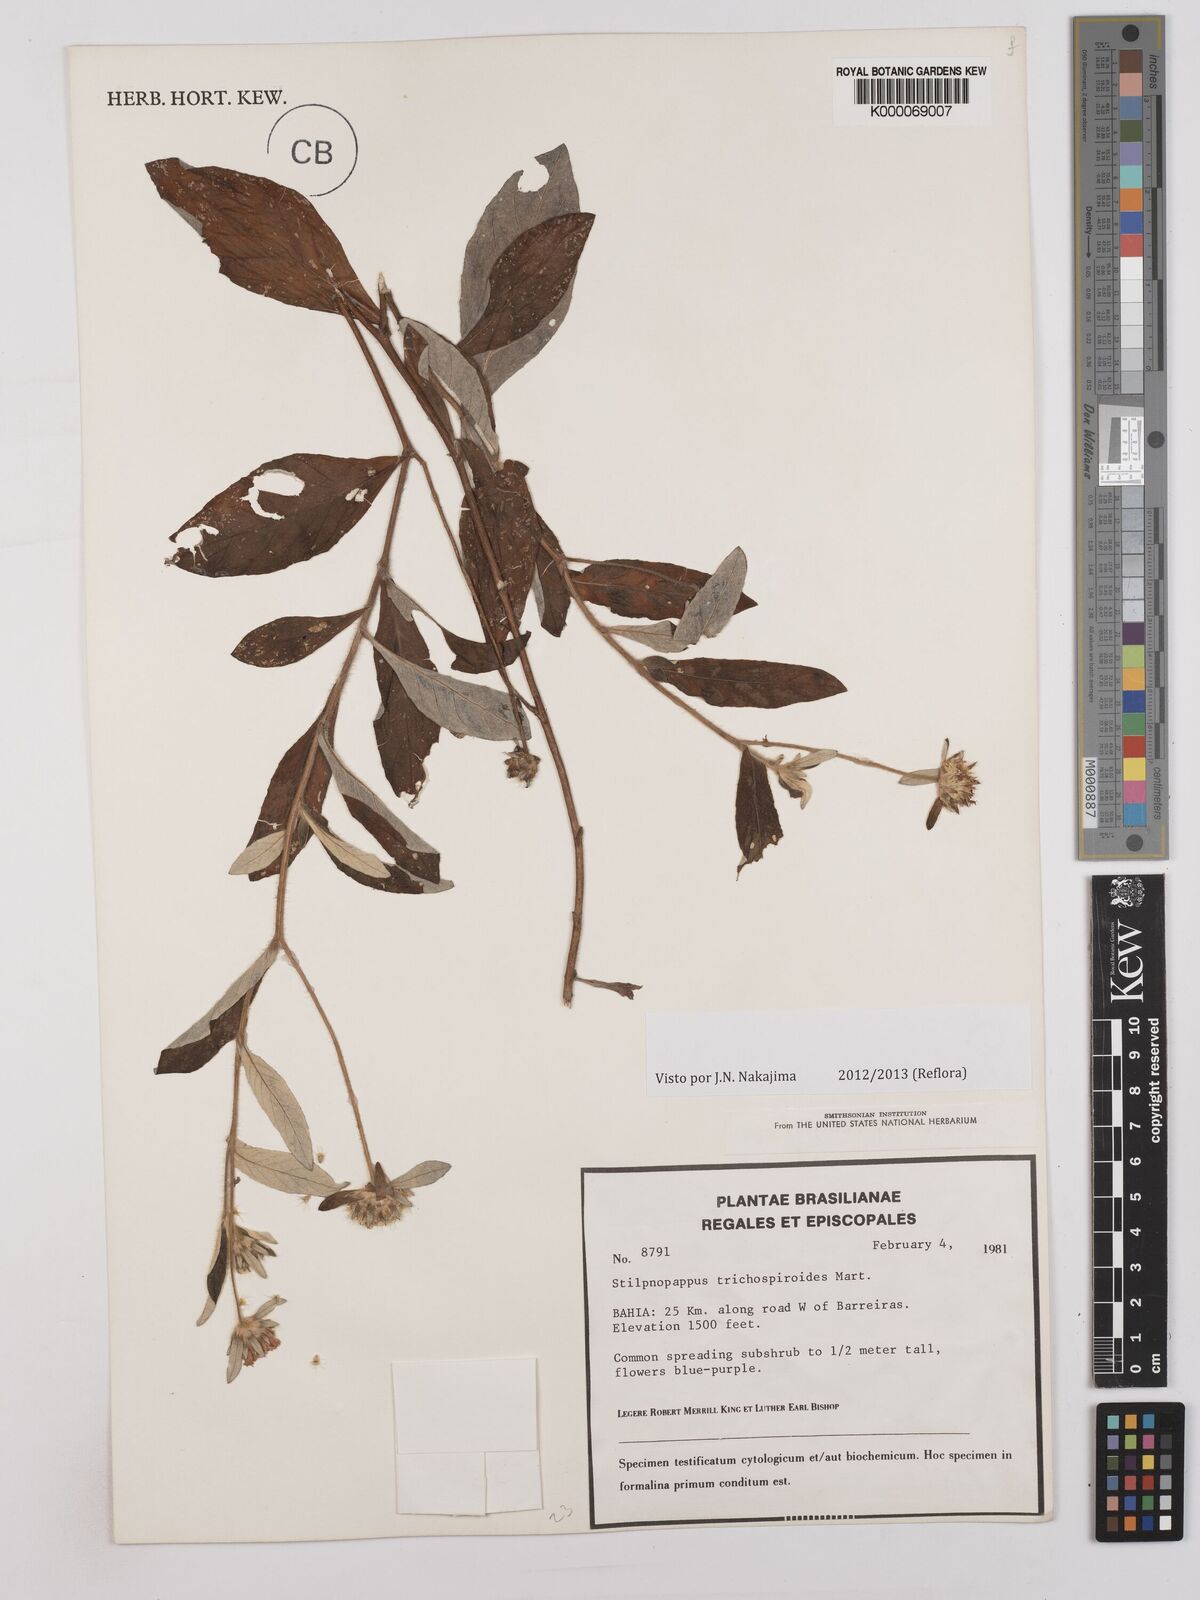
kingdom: Plantae
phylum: Tracheophyta
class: Magnoliopsida
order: Asterales
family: Asteraceae
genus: Stilpnopappus
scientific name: Stilpnopappus
